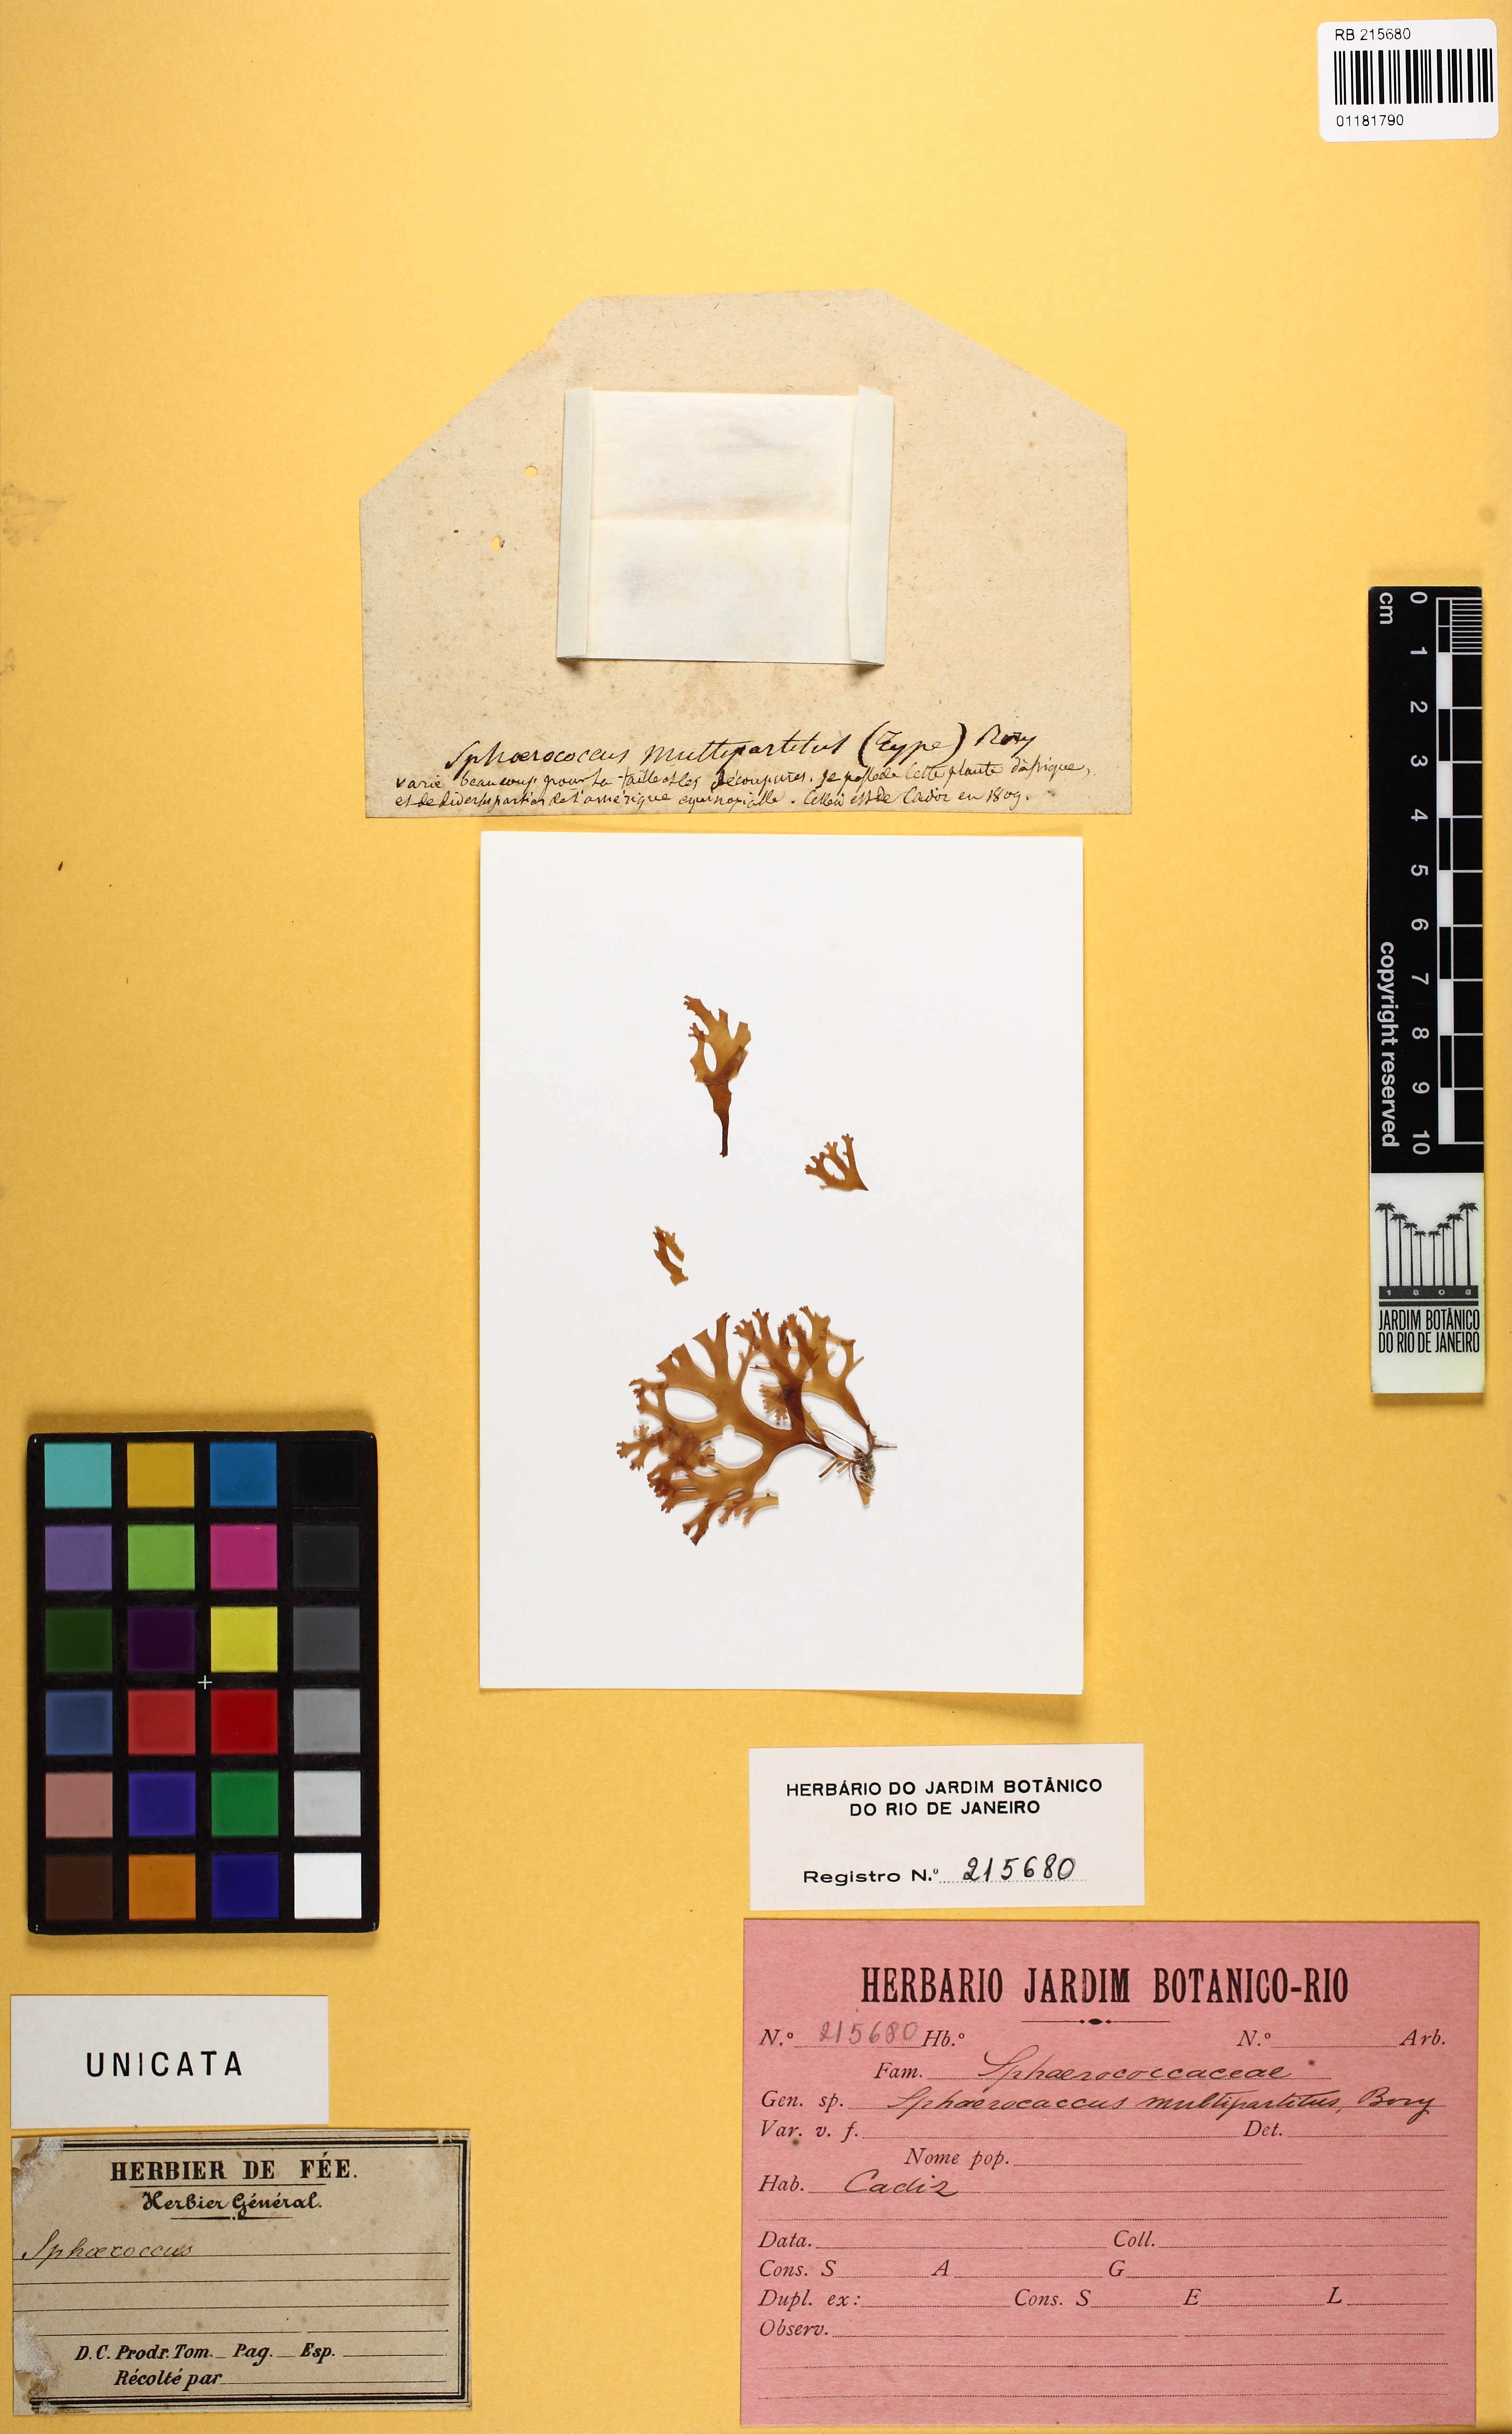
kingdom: Plantae
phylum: Rhodophyta
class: Florideophyceae
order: Gracilariales
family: Gracilariaceae
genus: Gracilaria
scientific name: Gracilaria multipartita
